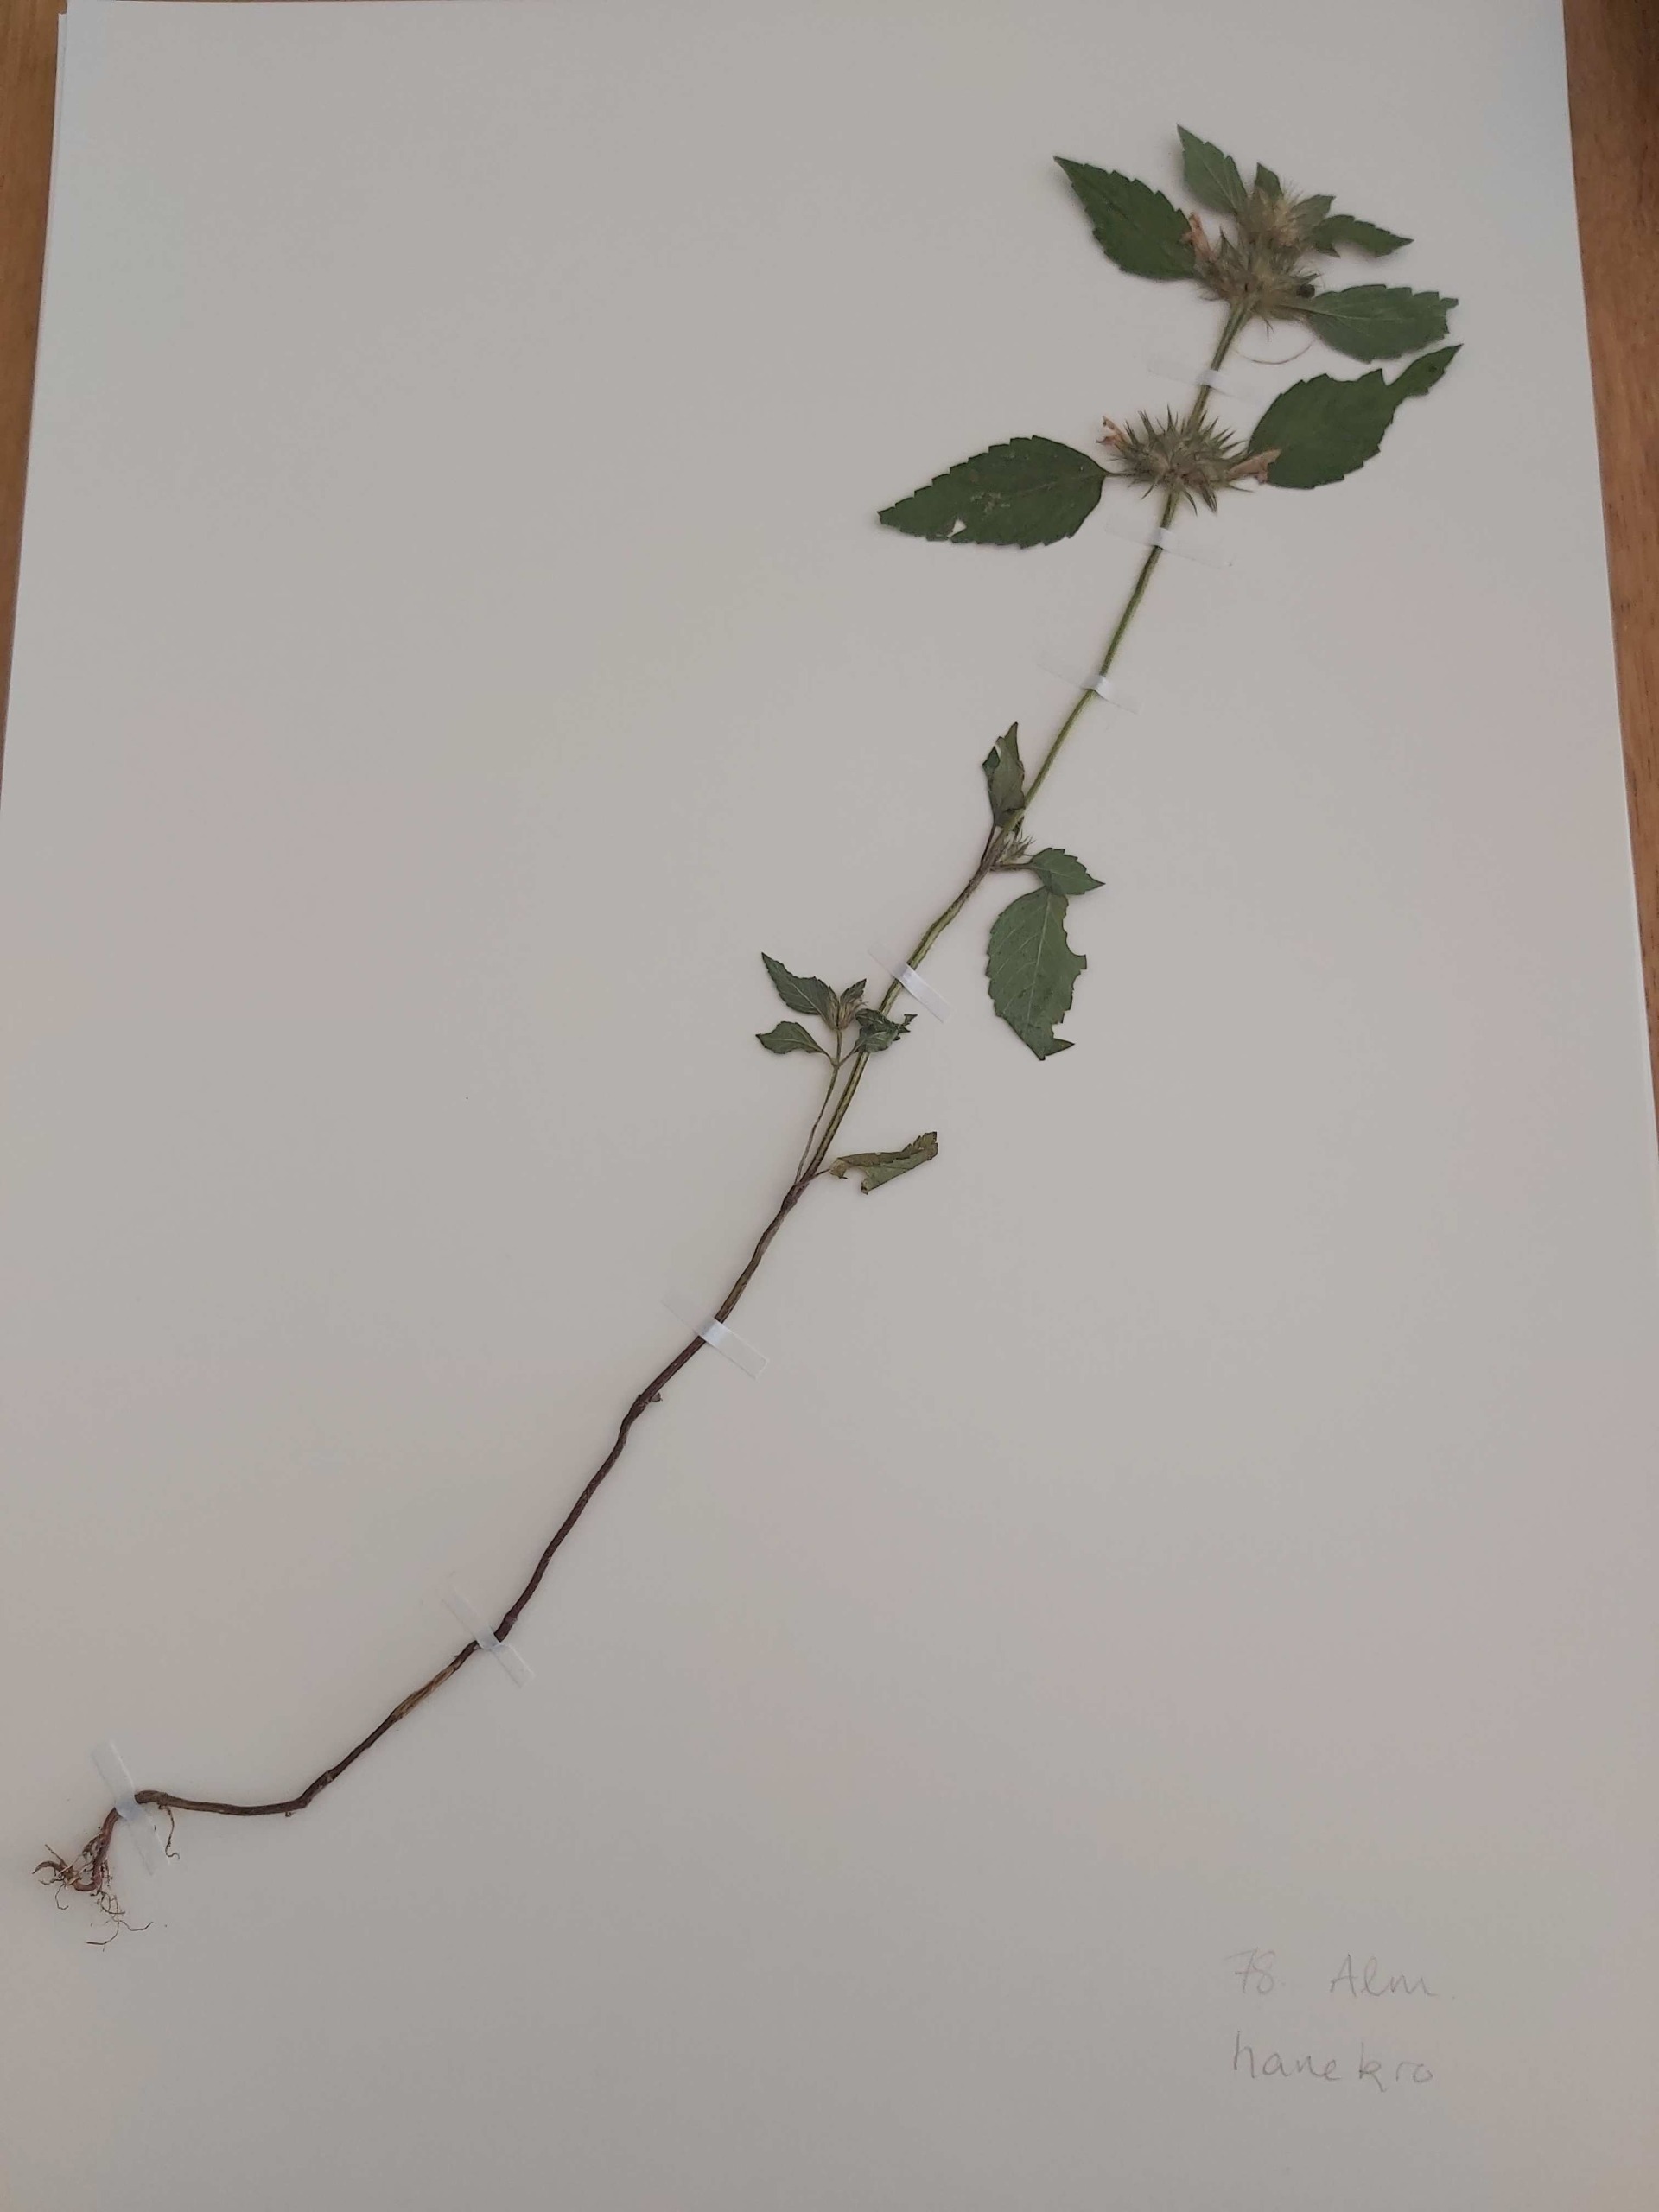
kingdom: Plantae
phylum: Tracheophyta
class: Magnoliopsida
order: Lamiales
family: Lamiaceae
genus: Galeopsis
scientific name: Galeopsis tetrahit
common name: Almindelig hanekro
